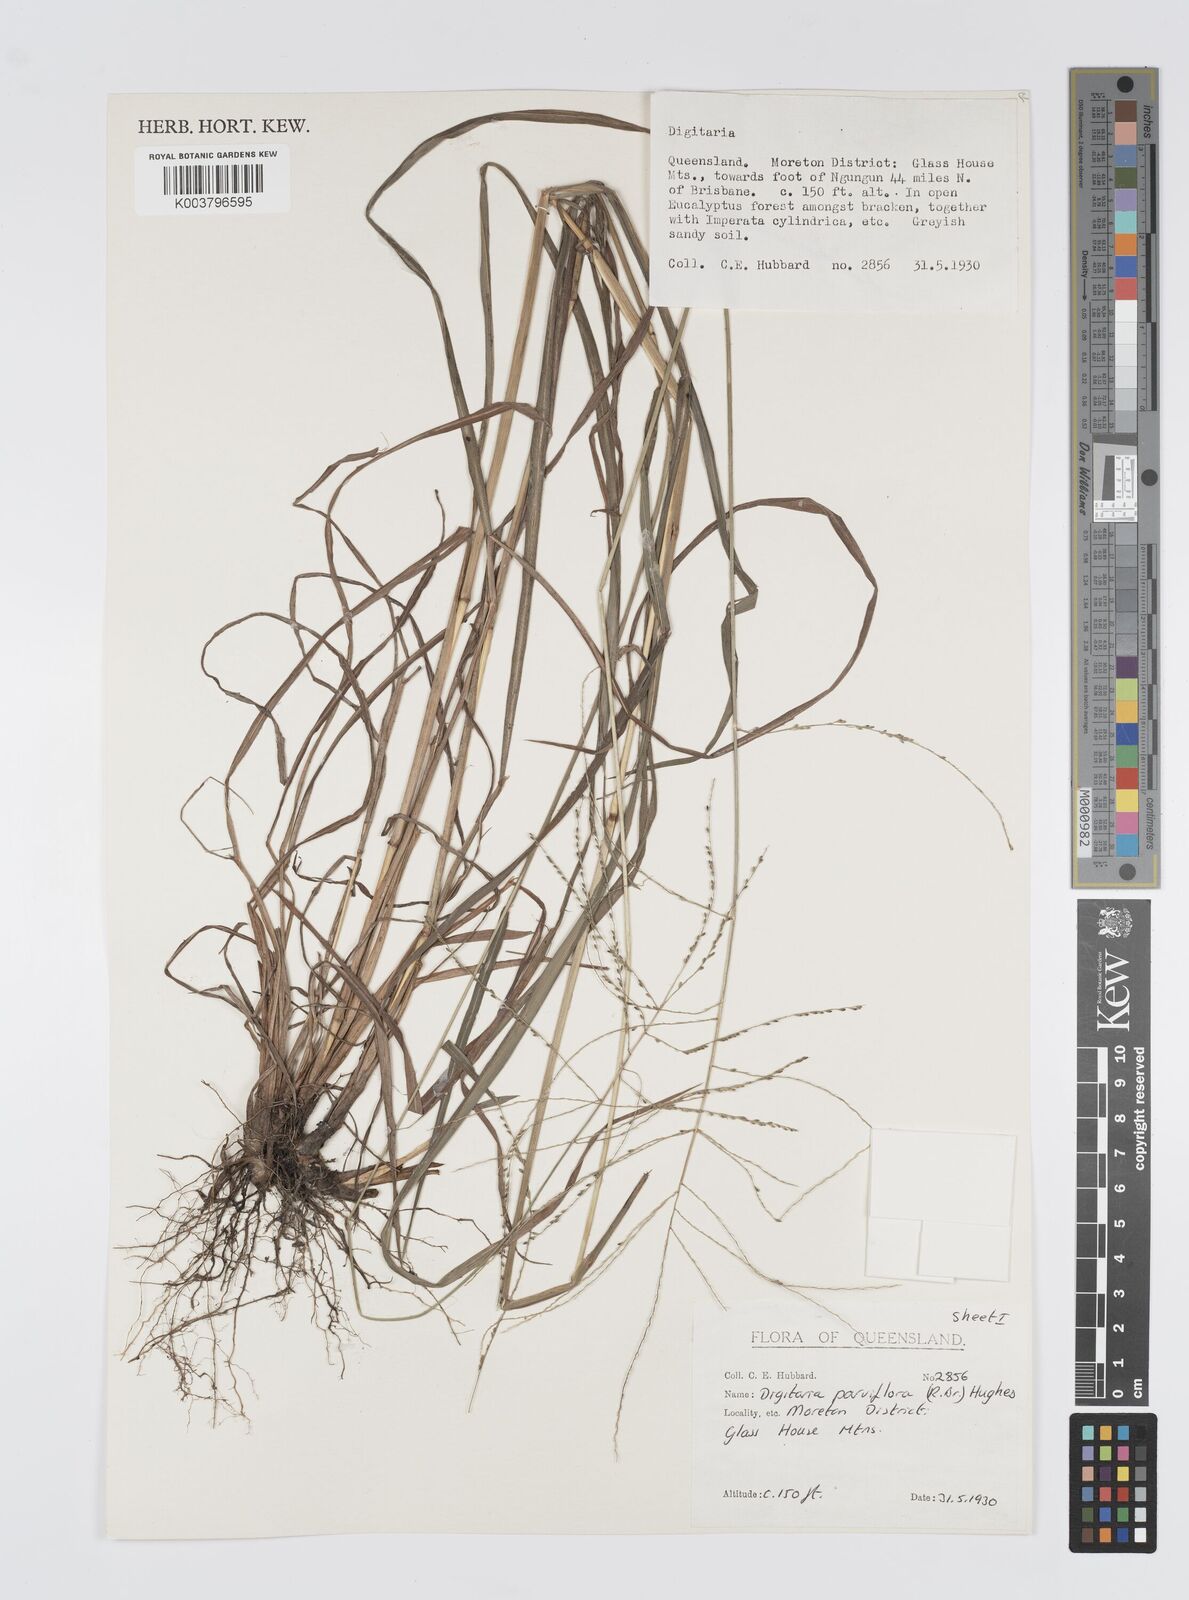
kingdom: Plantae
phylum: Tracheophyta
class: Liliopsida
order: Poales
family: Poaceae
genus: Digitaria
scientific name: Digitaria parviflora
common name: Small-flower finger grass
